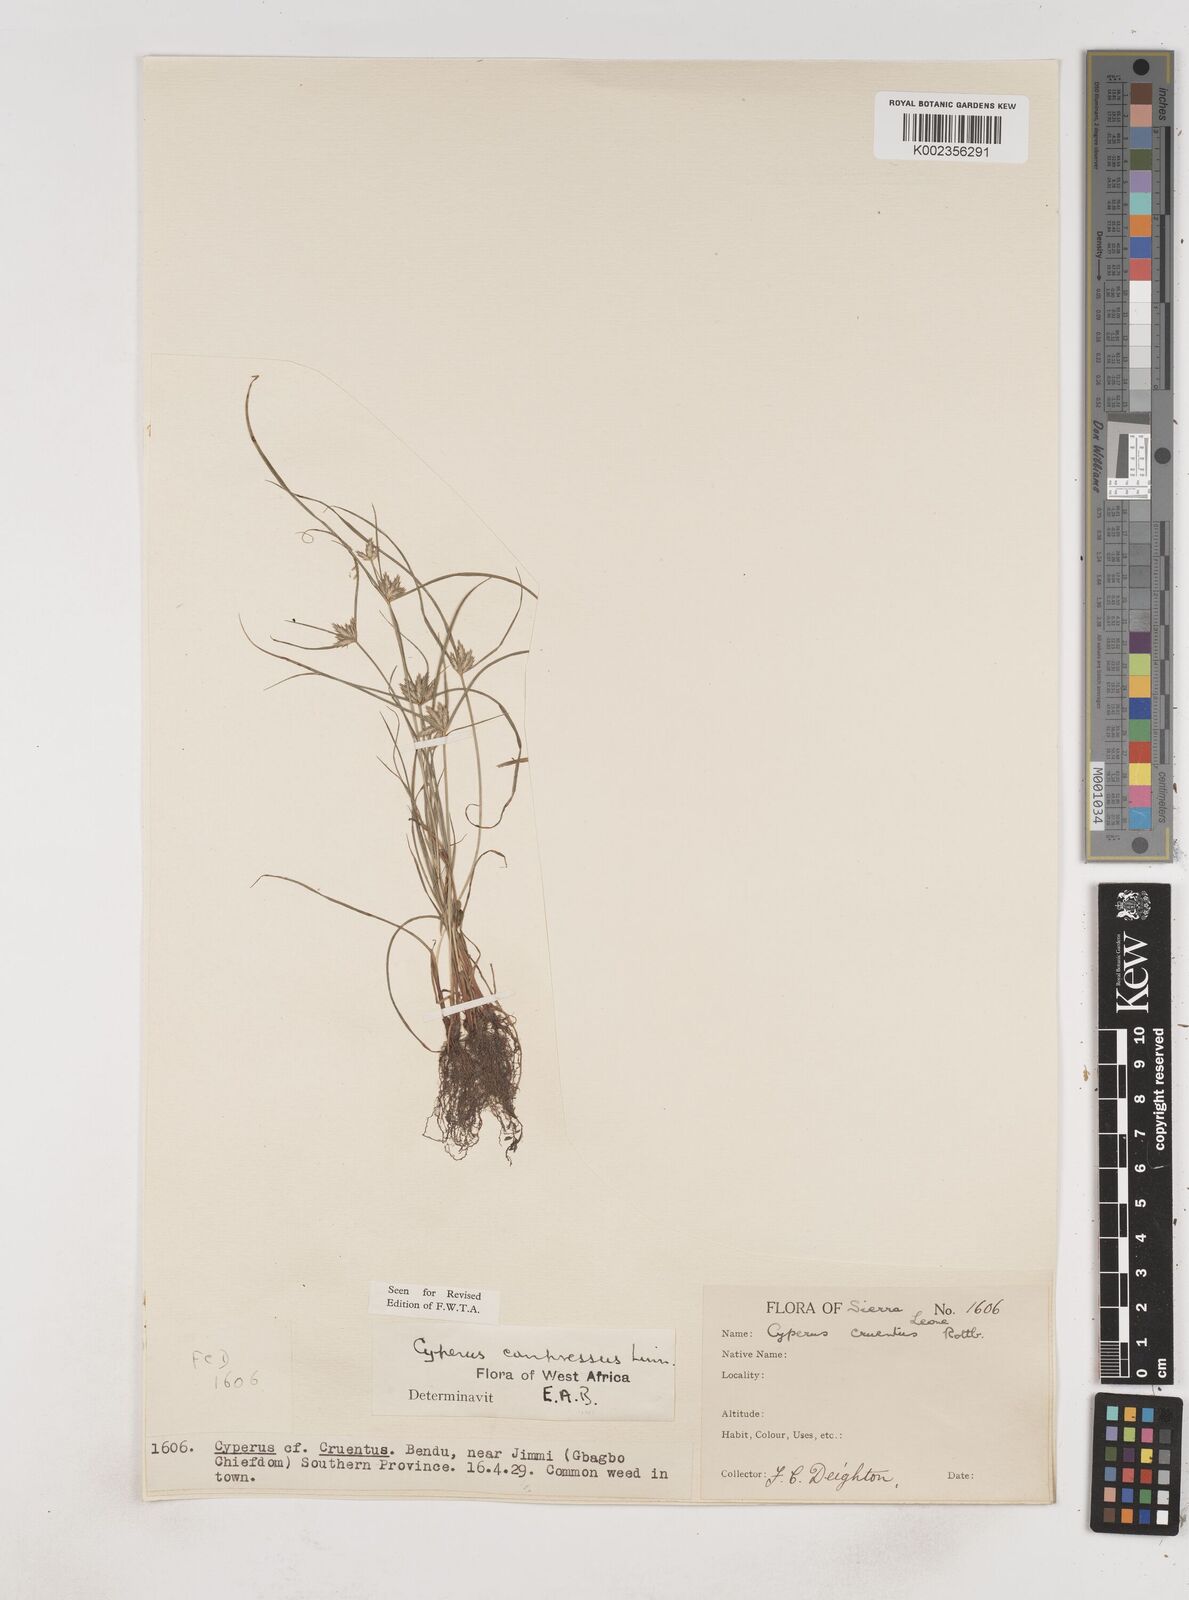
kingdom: Plantae
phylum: Tracheophyta
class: Liliopsida
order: Poales
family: Cyperaceae
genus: Cyperus
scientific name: Cyperus compressus
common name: Poorland flatsedge
